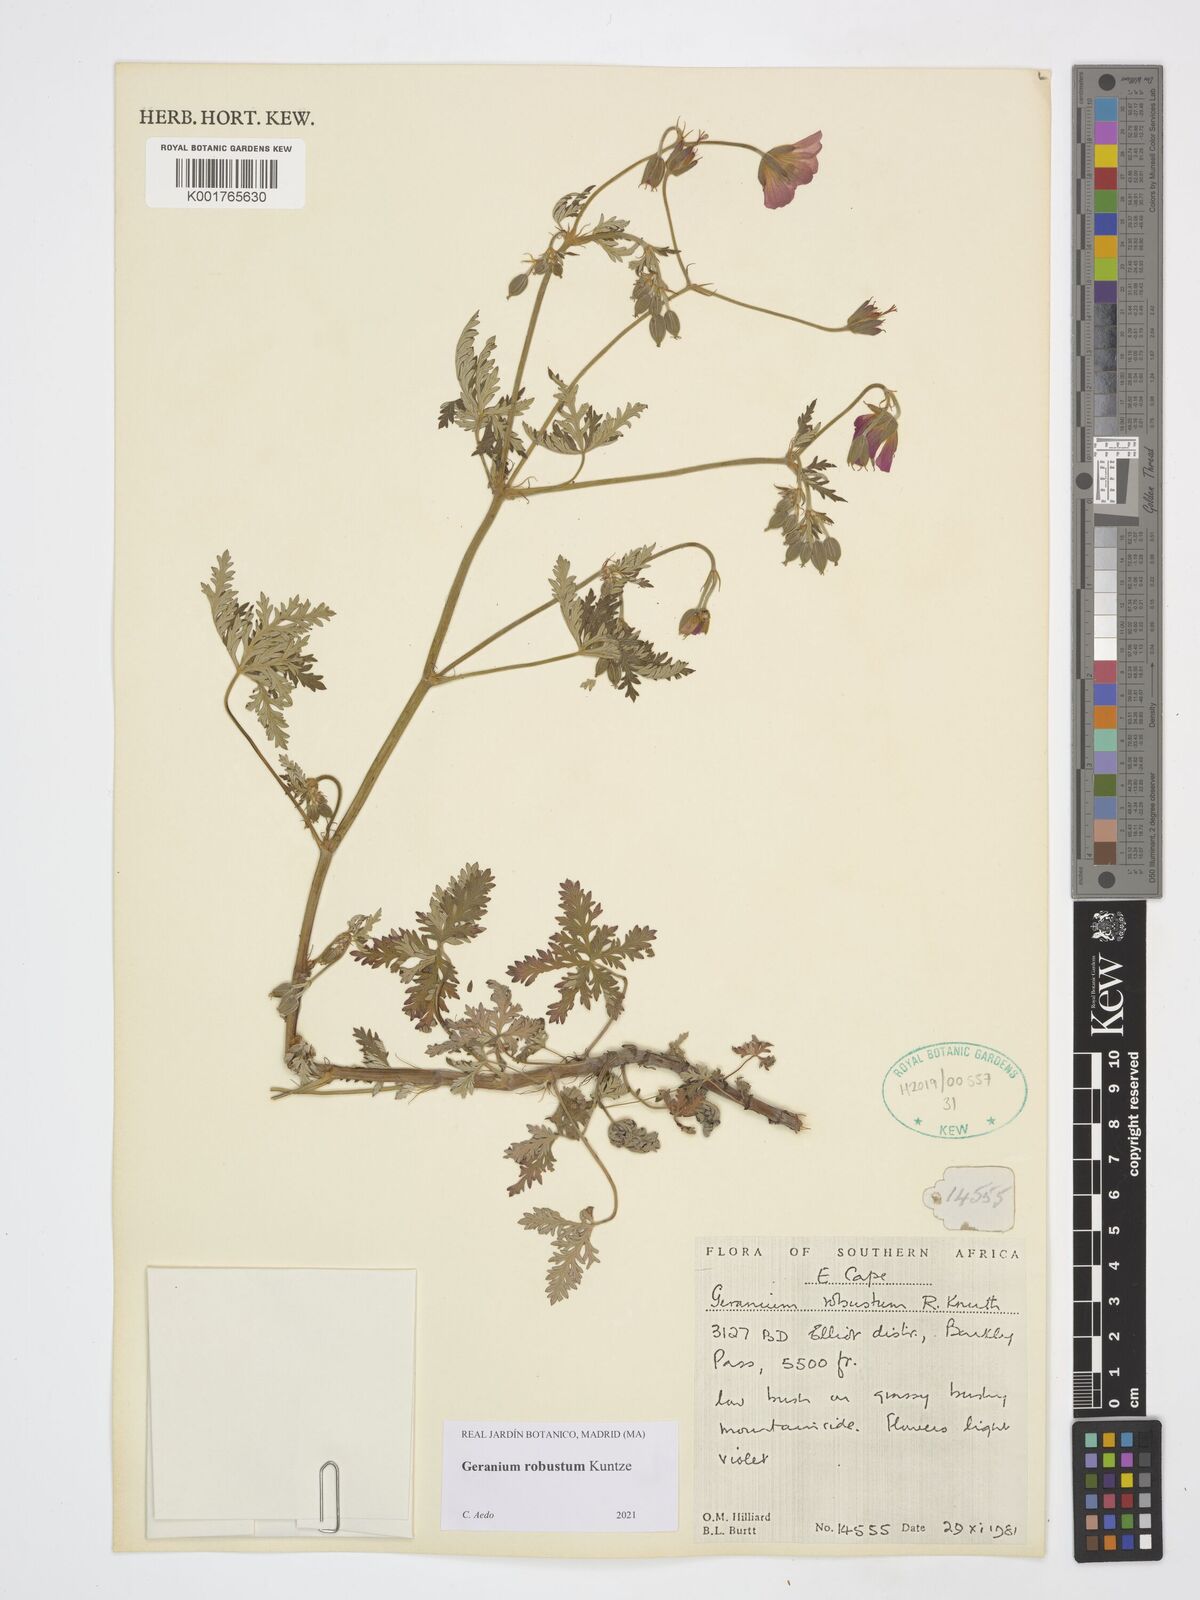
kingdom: Plantae
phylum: Tracheophyta
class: Magnoliopsida
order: Geraniales
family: Geraniaceae
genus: Geranium
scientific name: Geranium robustum
